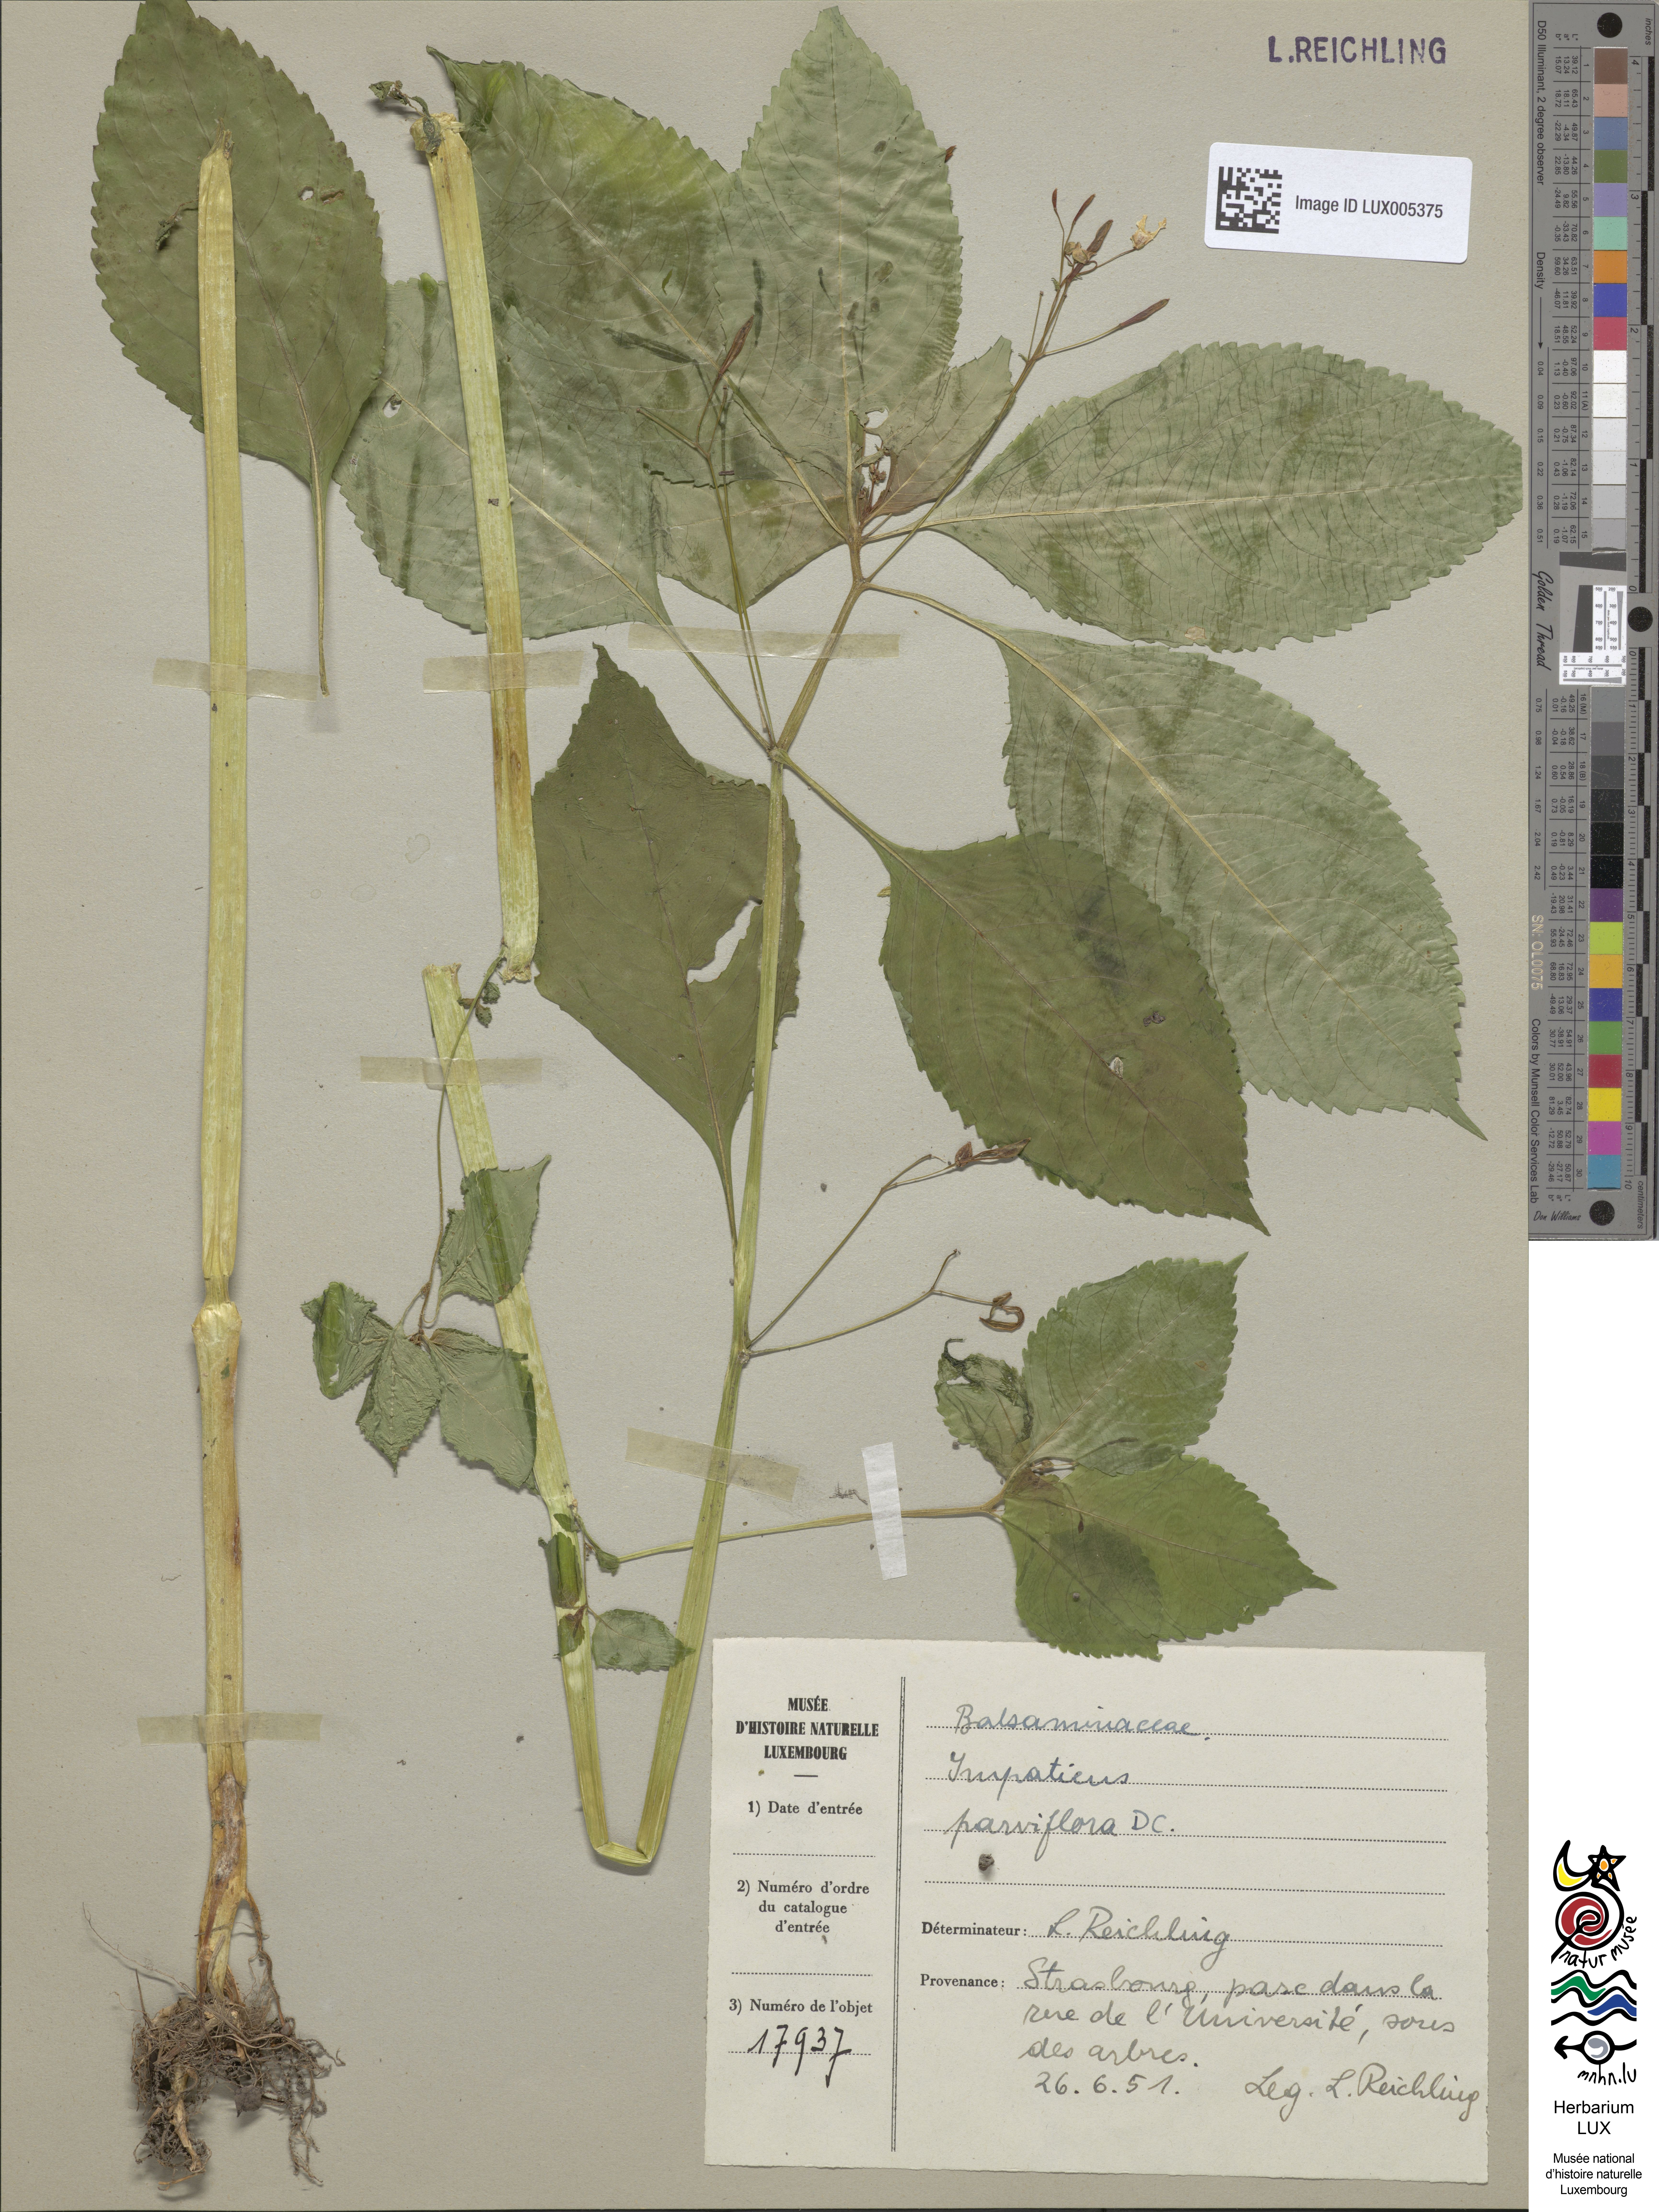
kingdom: Plantae
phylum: Tracheophyta
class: Magnoliopsida
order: Ericales
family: Balsaminaceae
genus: Impatiens
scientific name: Impatiens parviflora
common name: Small balsam
